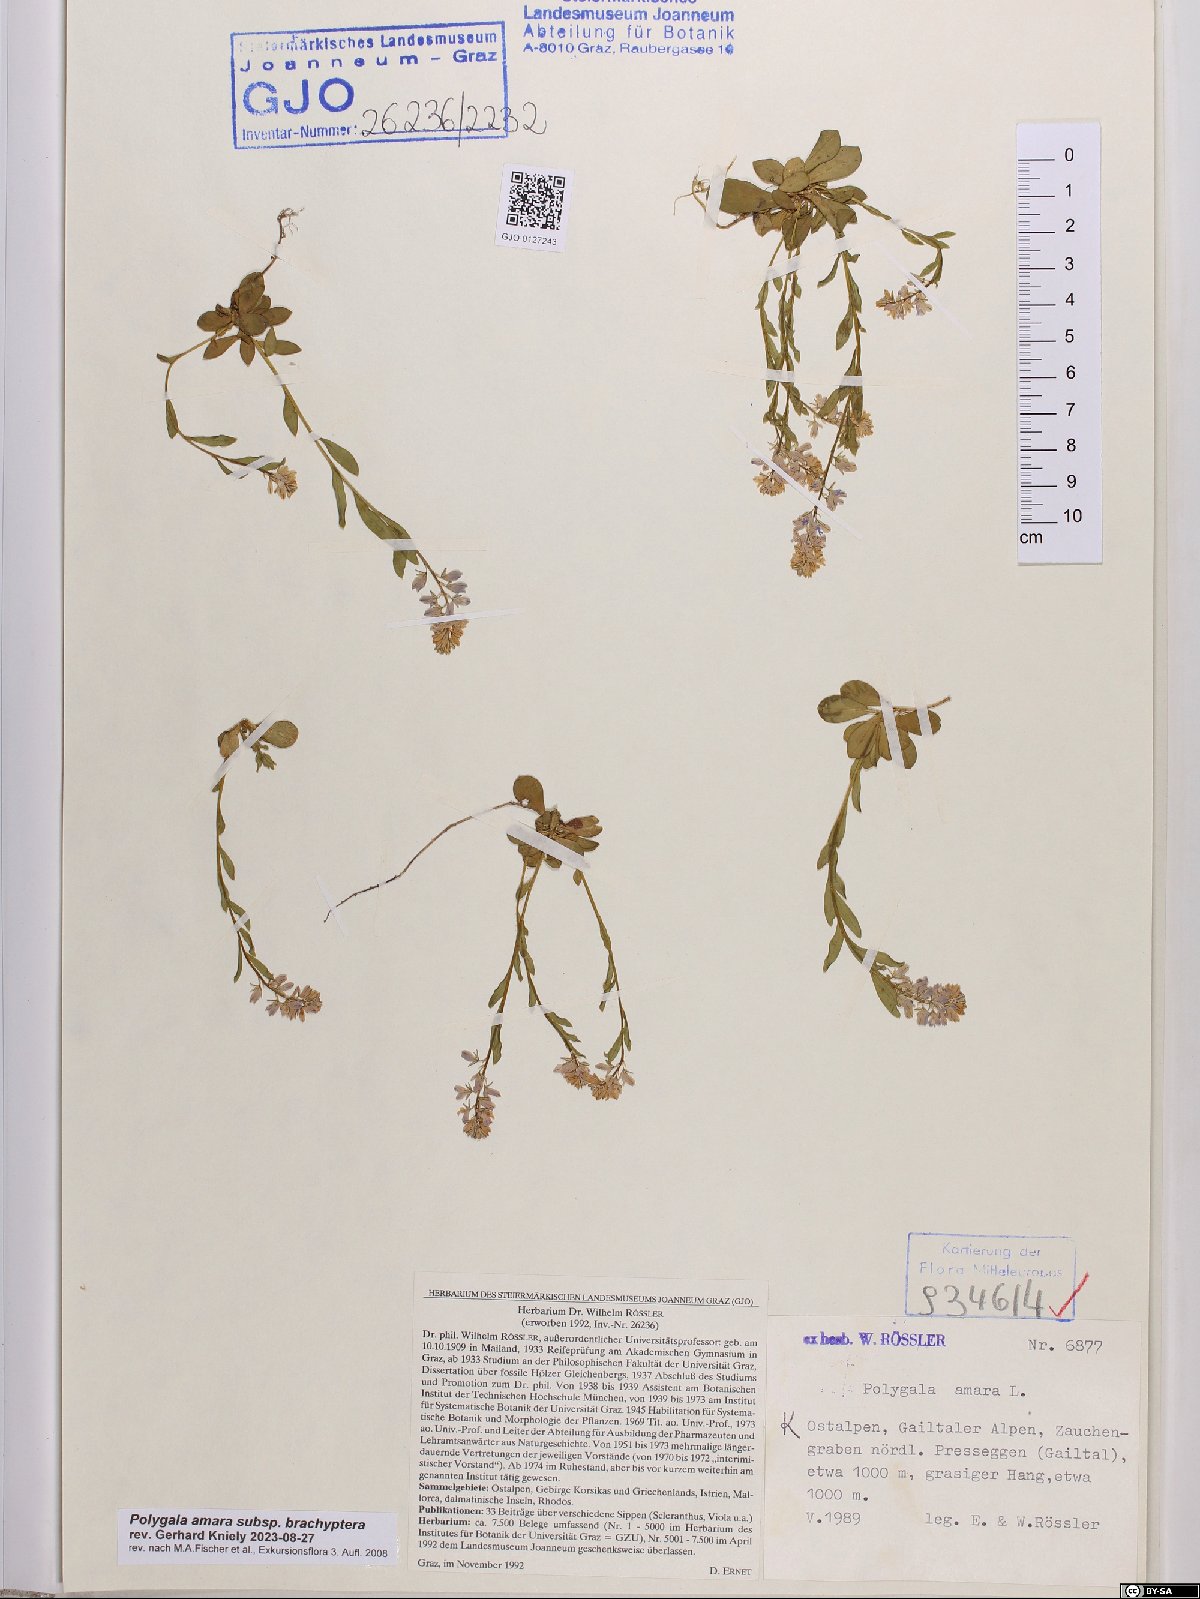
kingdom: Plantae
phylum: Tracheophyta
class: Magnoliopsida
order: Fabales
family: Polygalaceae
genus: Polygala
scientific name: Polygala amara
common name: Milkwort
